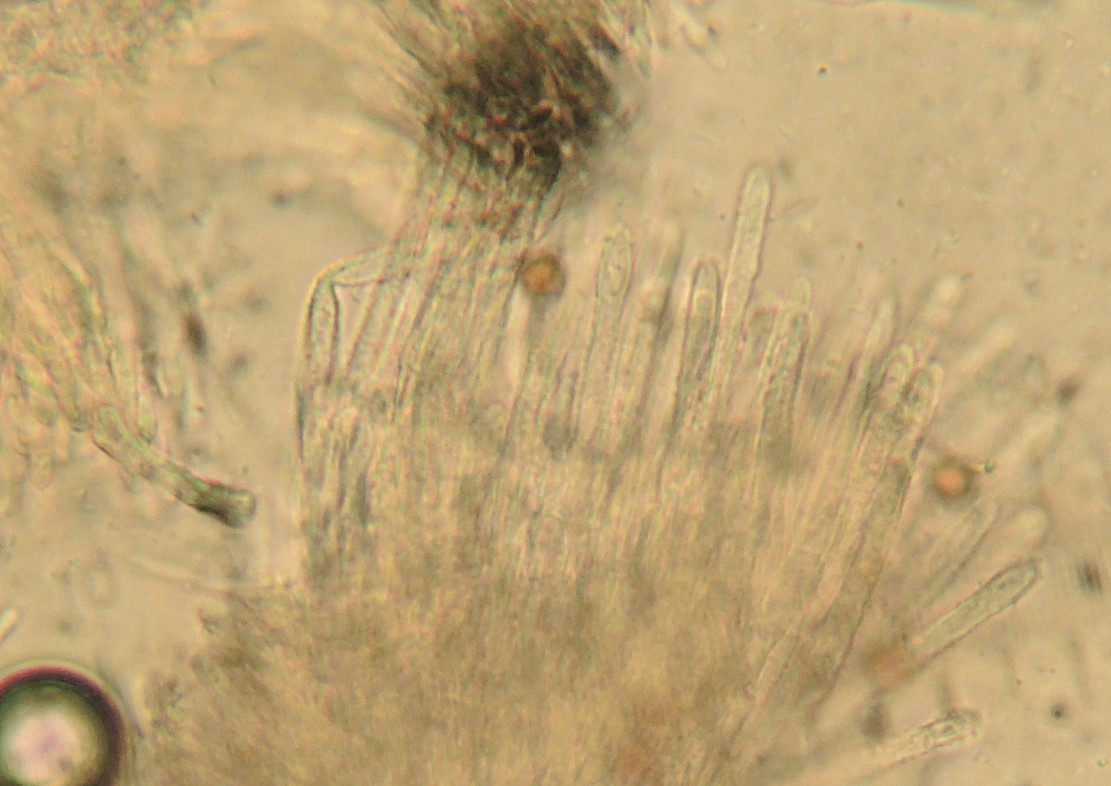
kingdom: Fungi
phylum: Ascomycota
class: Leotiomycetes
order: Helotiales
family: Lachnaceae
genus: Lachnum
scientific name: Lachnum impudicum
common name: vinter-frynseskive
